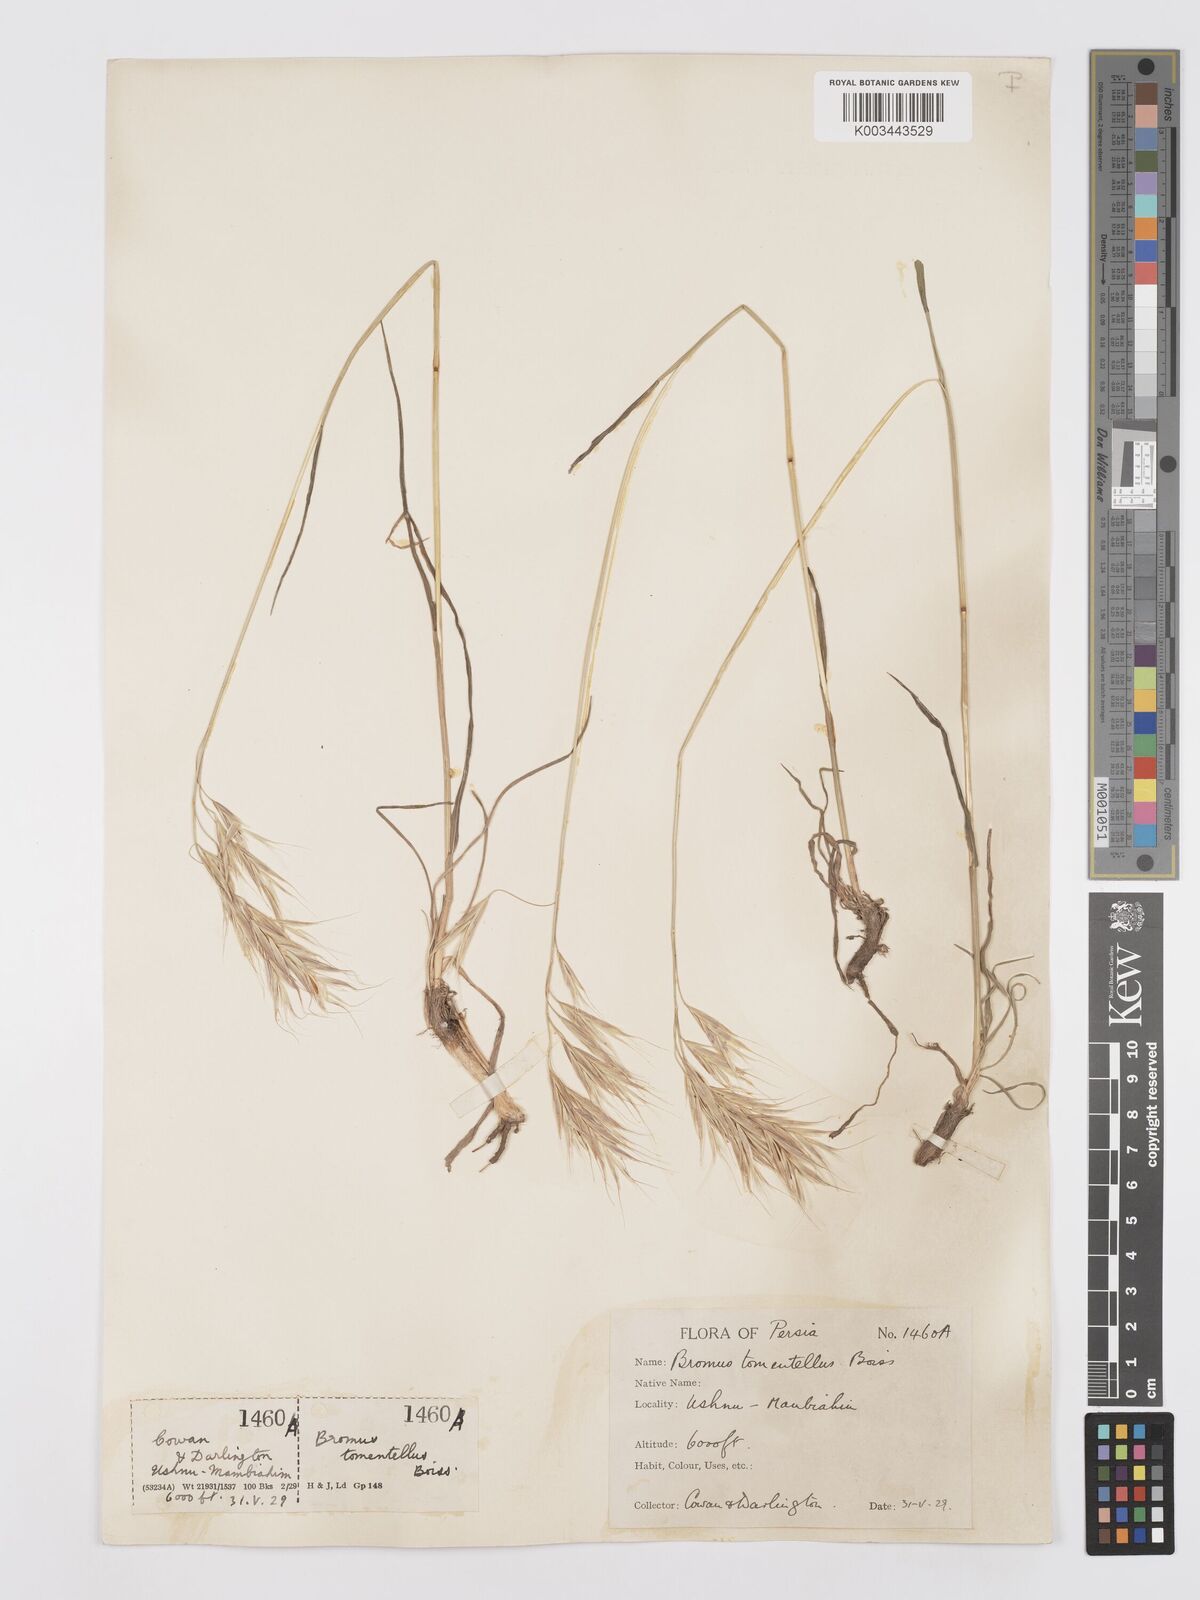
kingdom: Plantae
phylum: Tracheophyta
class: Liliopsida
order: Poales
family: Poaceae
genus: Bromus
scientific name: Bromus tomentellus
